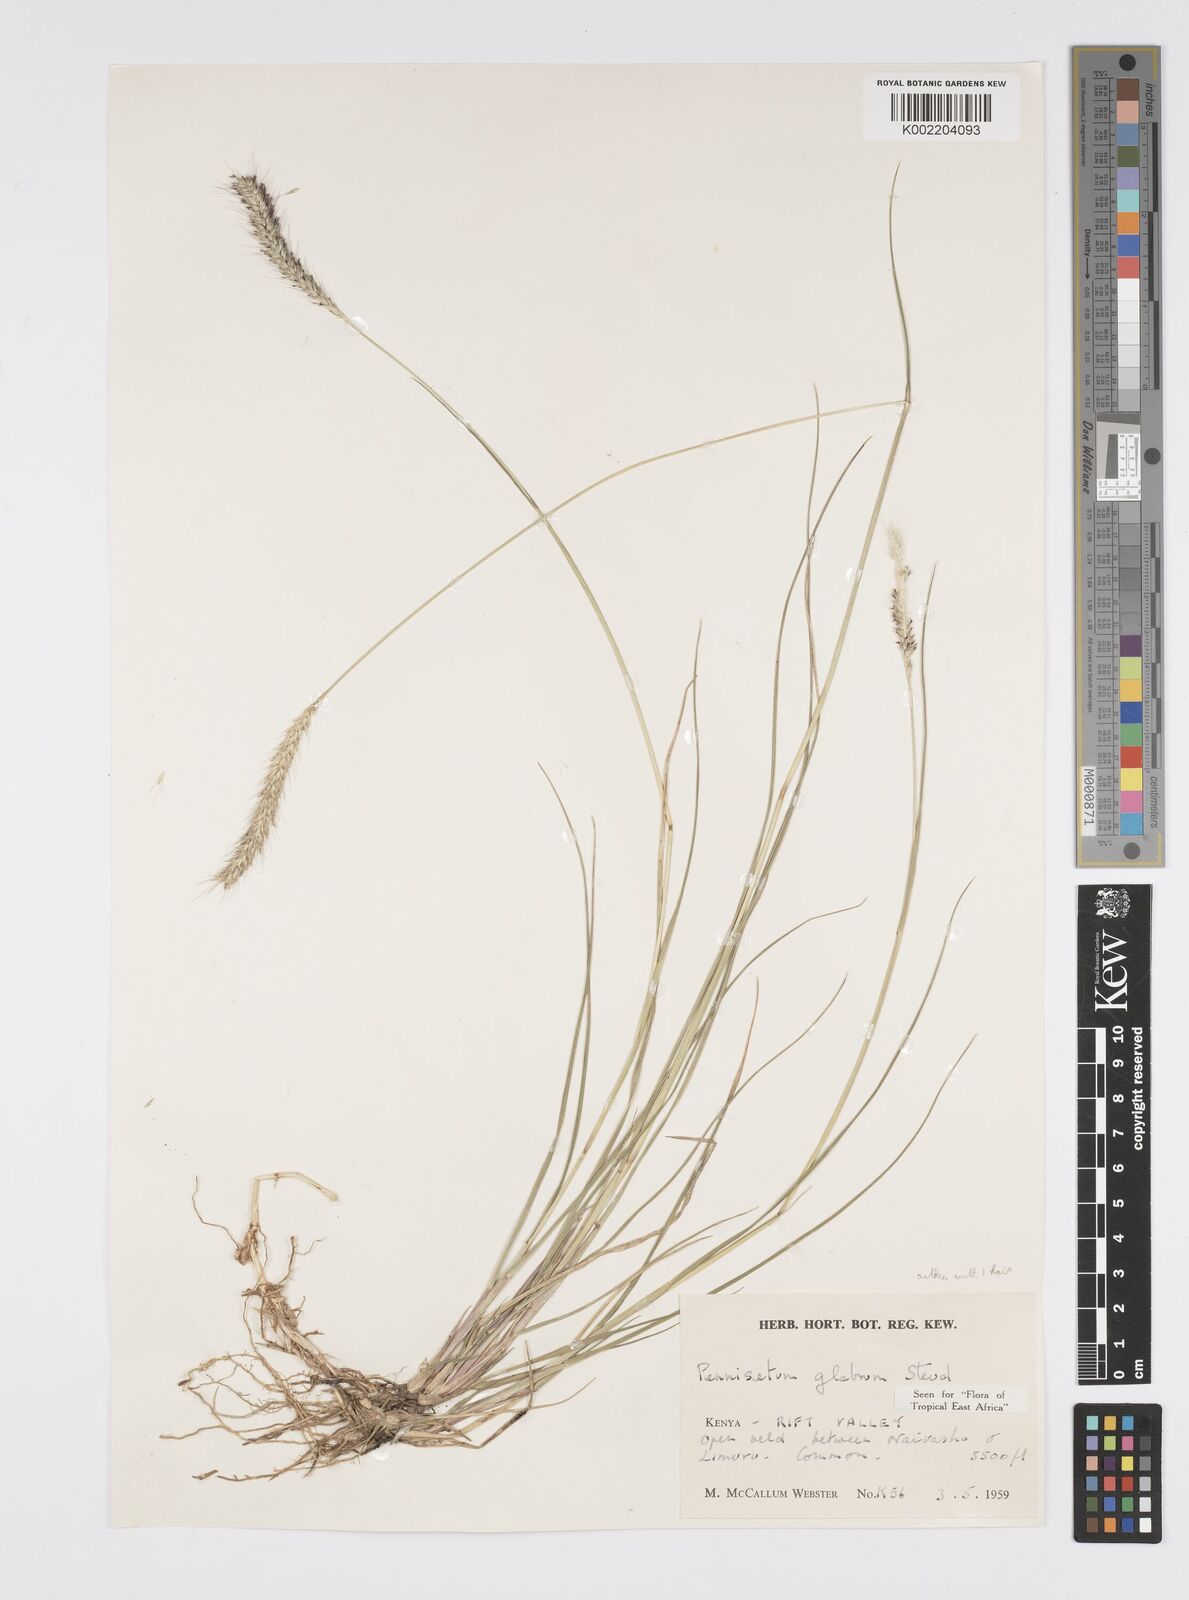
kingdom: Plantae
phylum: Tracheophyta
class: Liliopsida
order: Poales
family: Poaceae
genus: Cenchrus
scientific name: Cenchrus geniculatus
